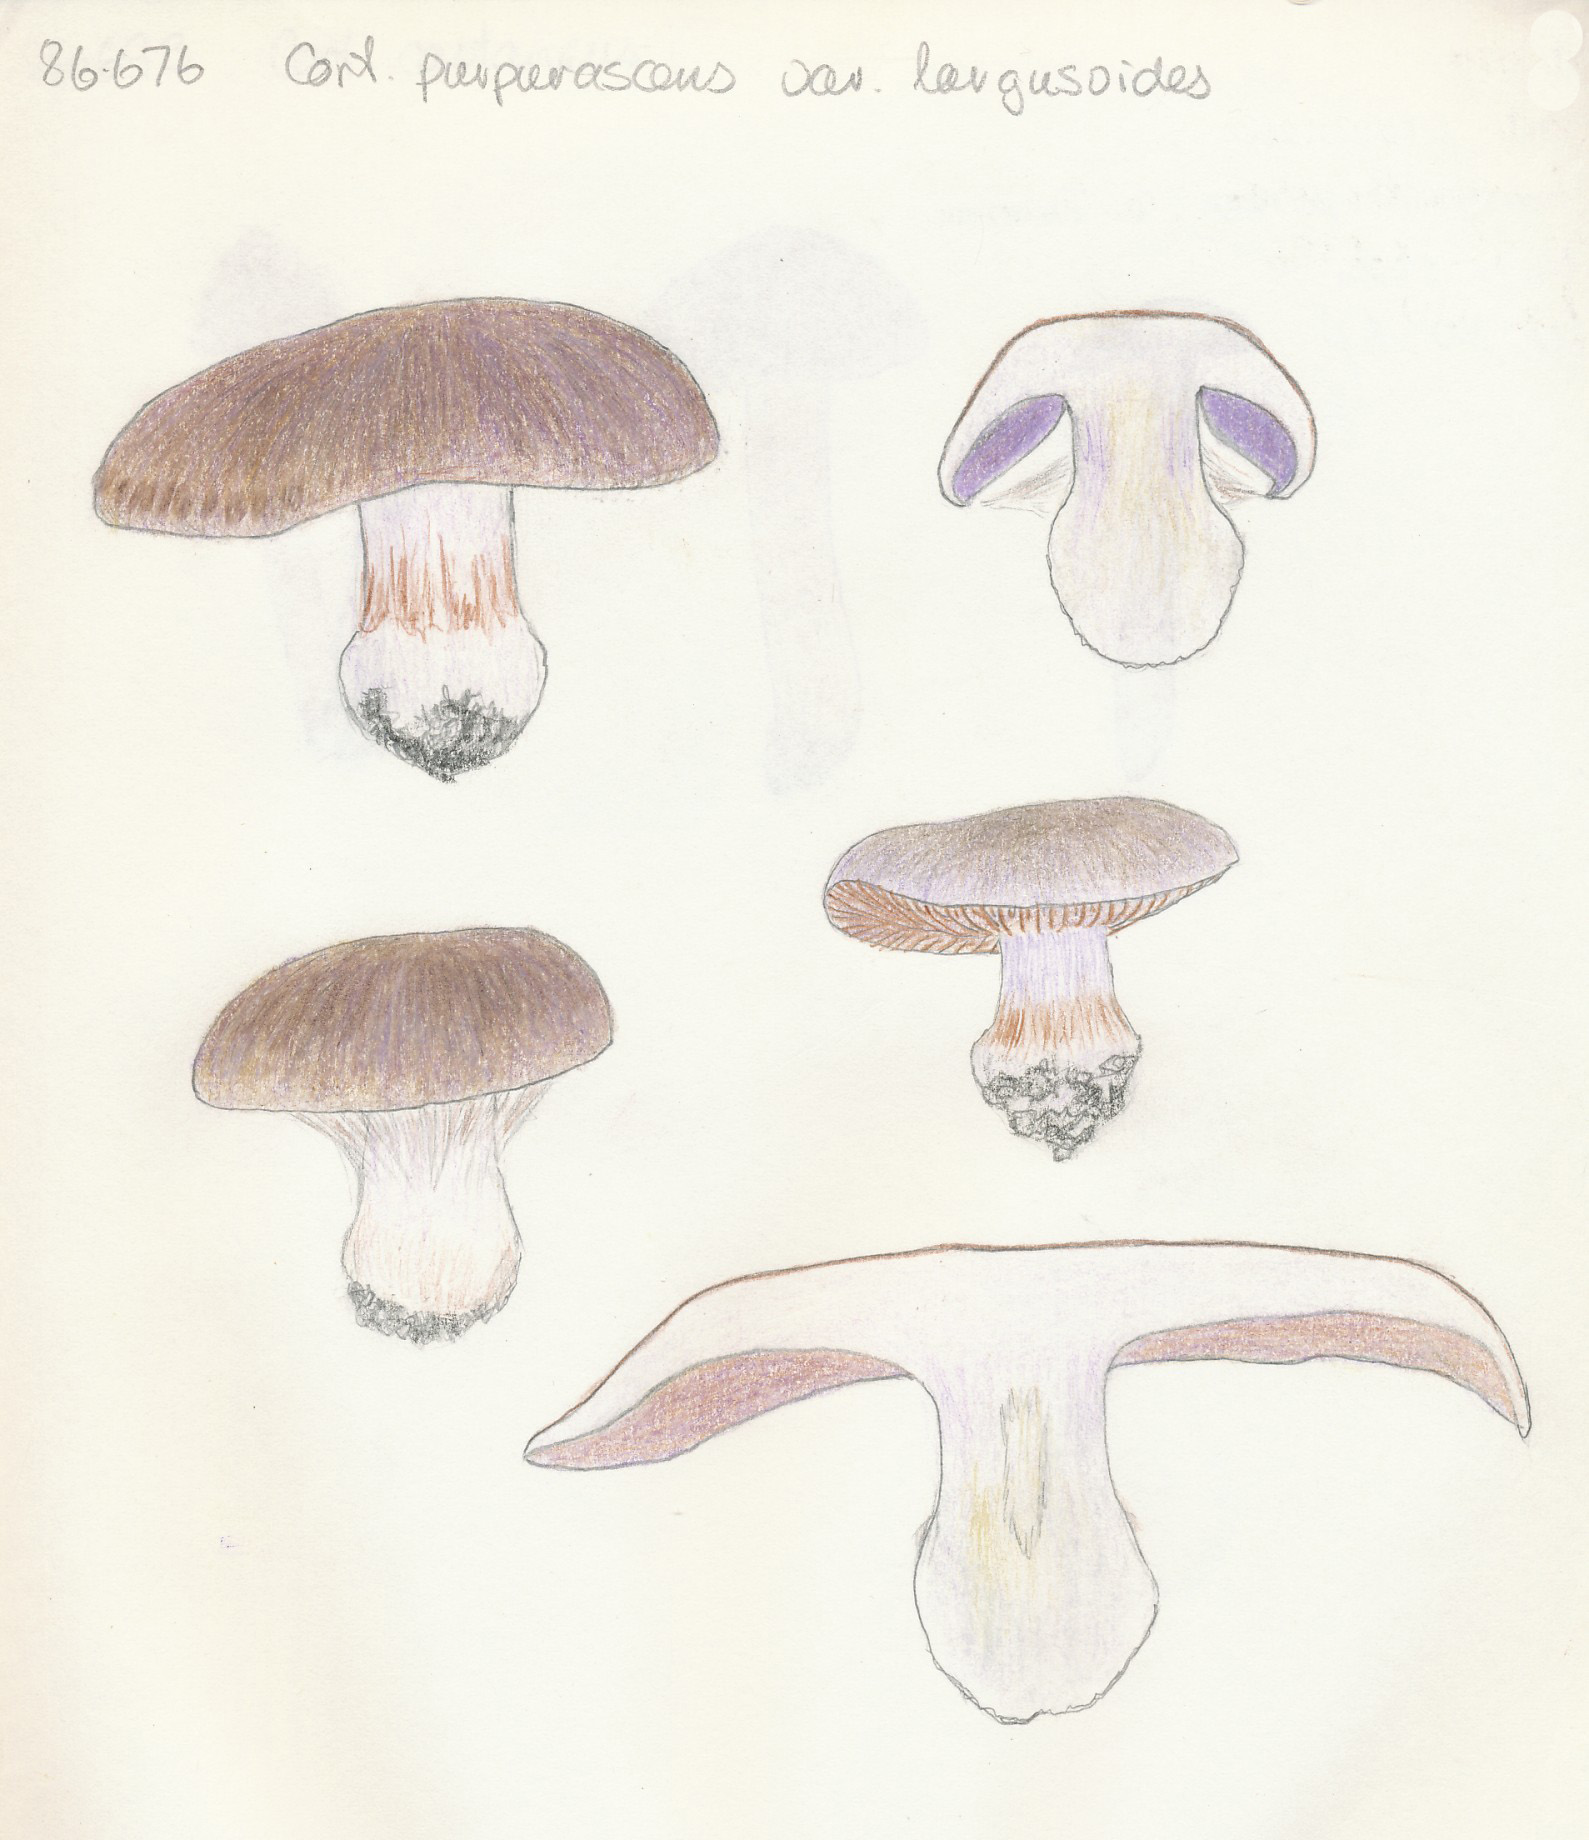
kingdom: Fungi
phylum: Basidiomycota
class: Agaricomycetes
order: Agaricales
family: Cortinariaceae
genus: Thaxterogaster
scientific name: Thaxterogaster subpurpurascens
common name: mørkblånende slørhat
